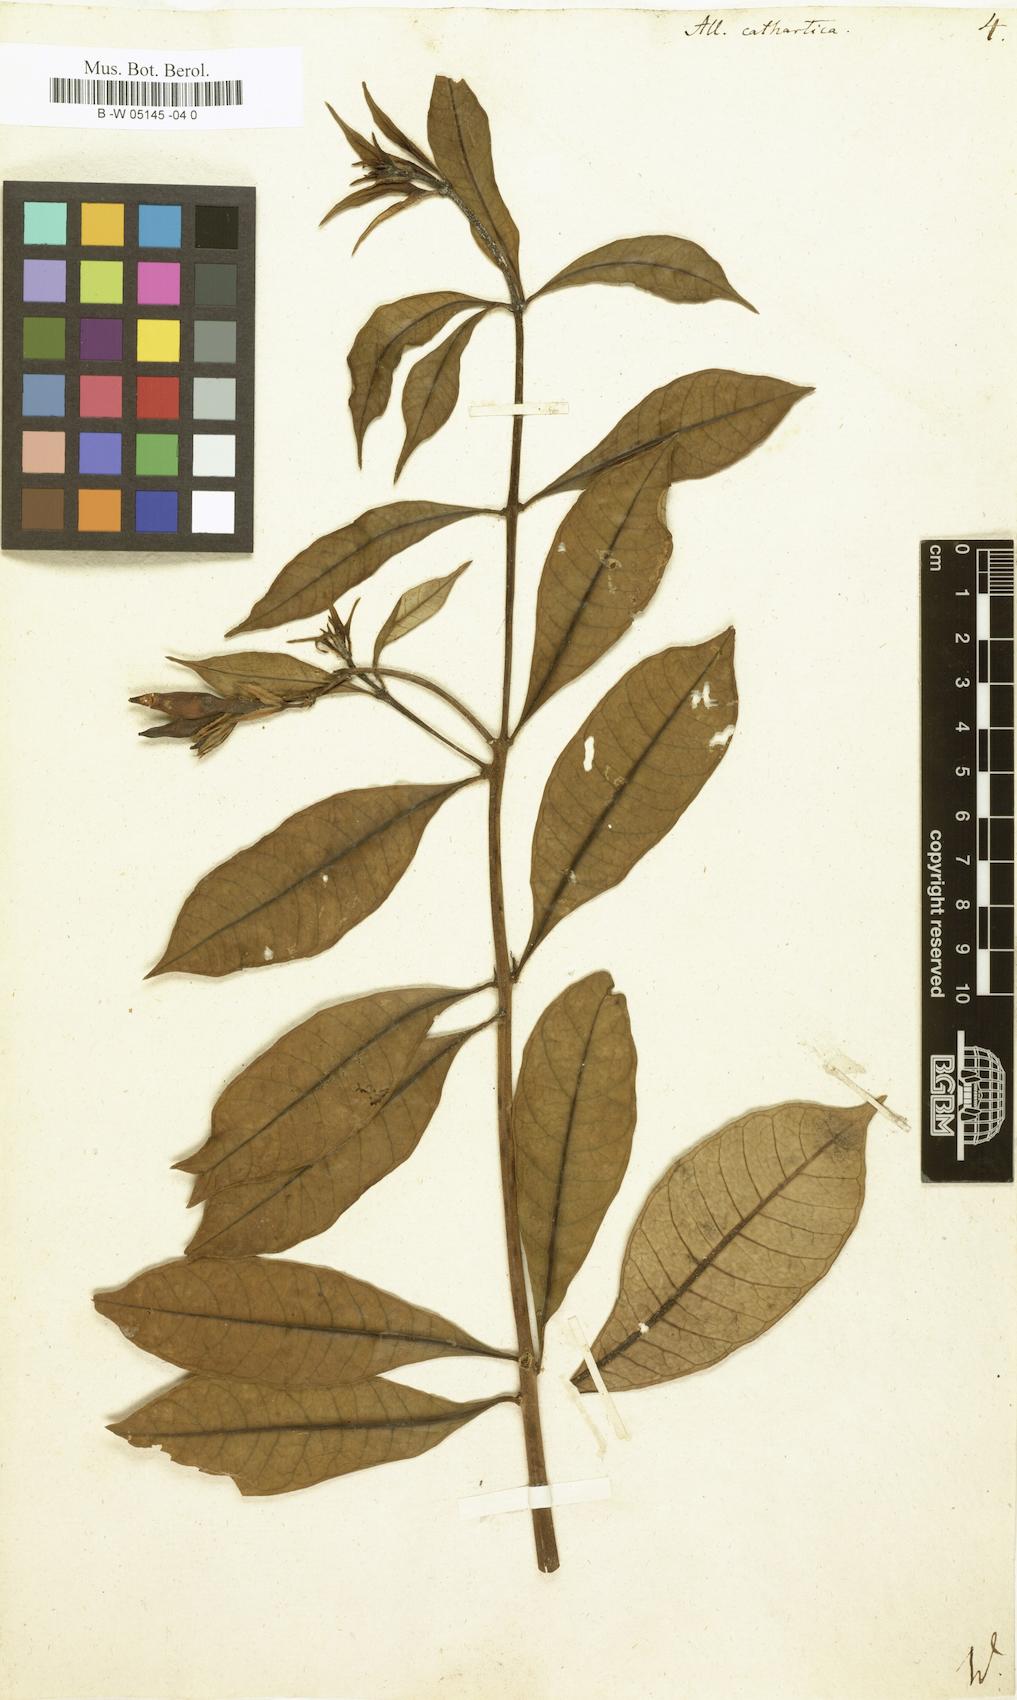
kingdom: Plantae
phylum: Tracheophyta
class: Magnoliopsida
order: Gentianales
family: Apocynaceae
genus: Allamanda
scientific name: Allamanda cathartica
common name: Golden trumpet
